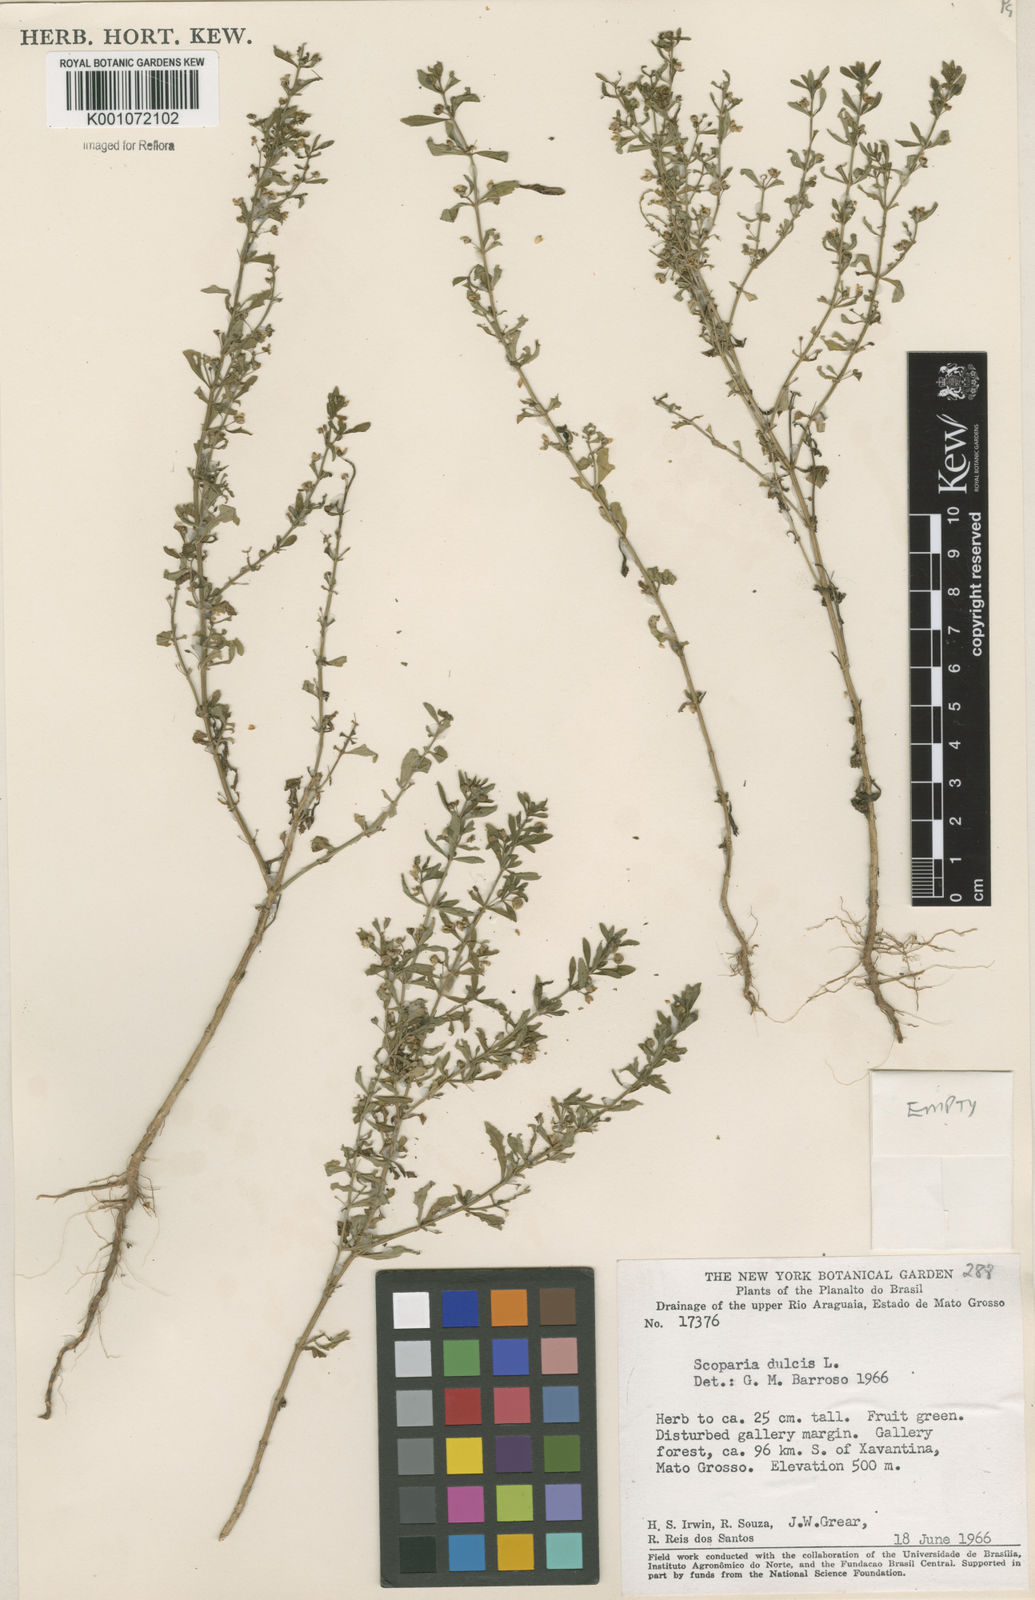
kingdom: Plantae
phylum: Tracheophyta
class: Magnoliopsida
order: Lamiales
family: Plantaginaceae
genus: Scoparia
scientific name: Scoparia dulcis
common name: Scoparia-weed
